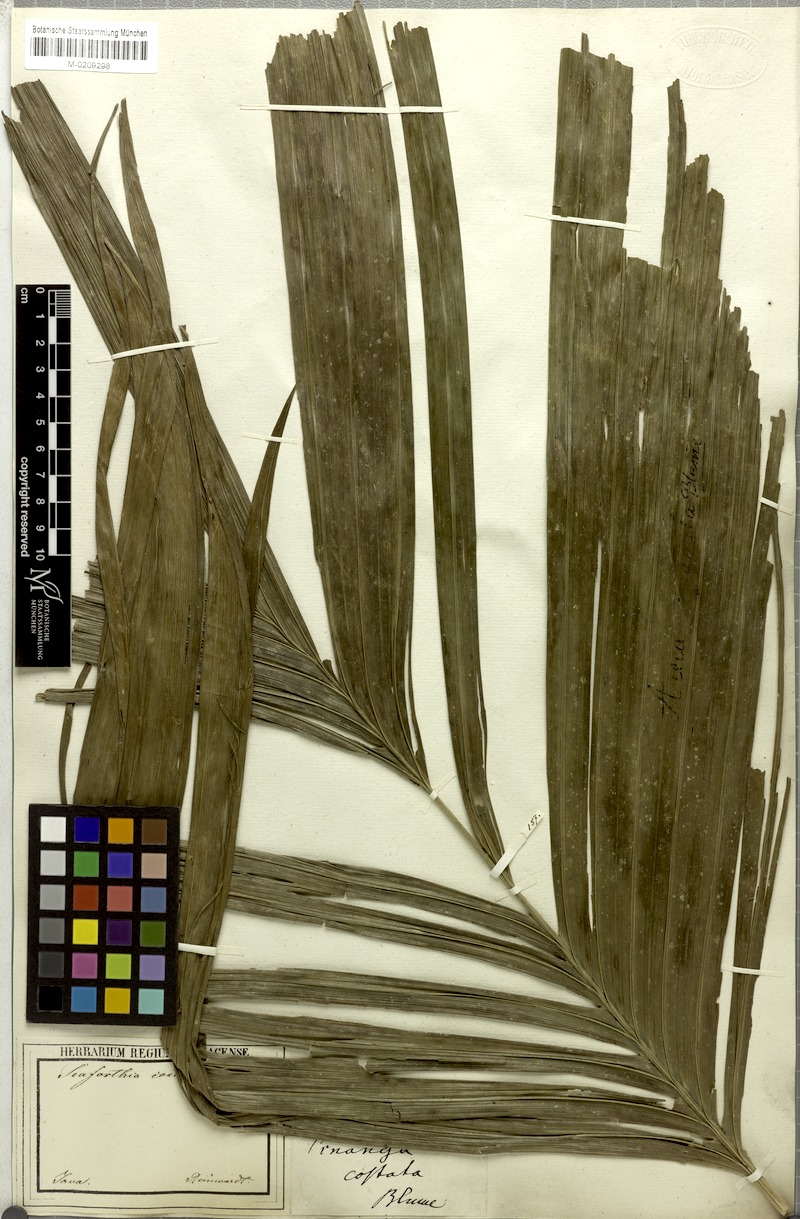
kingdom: Plantae
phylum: Tracheophyta
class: Liliopsida
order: Arecales
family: Arecaceae
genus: Pinanga
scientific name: Pinanga coronata
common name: Ivory cane palm
